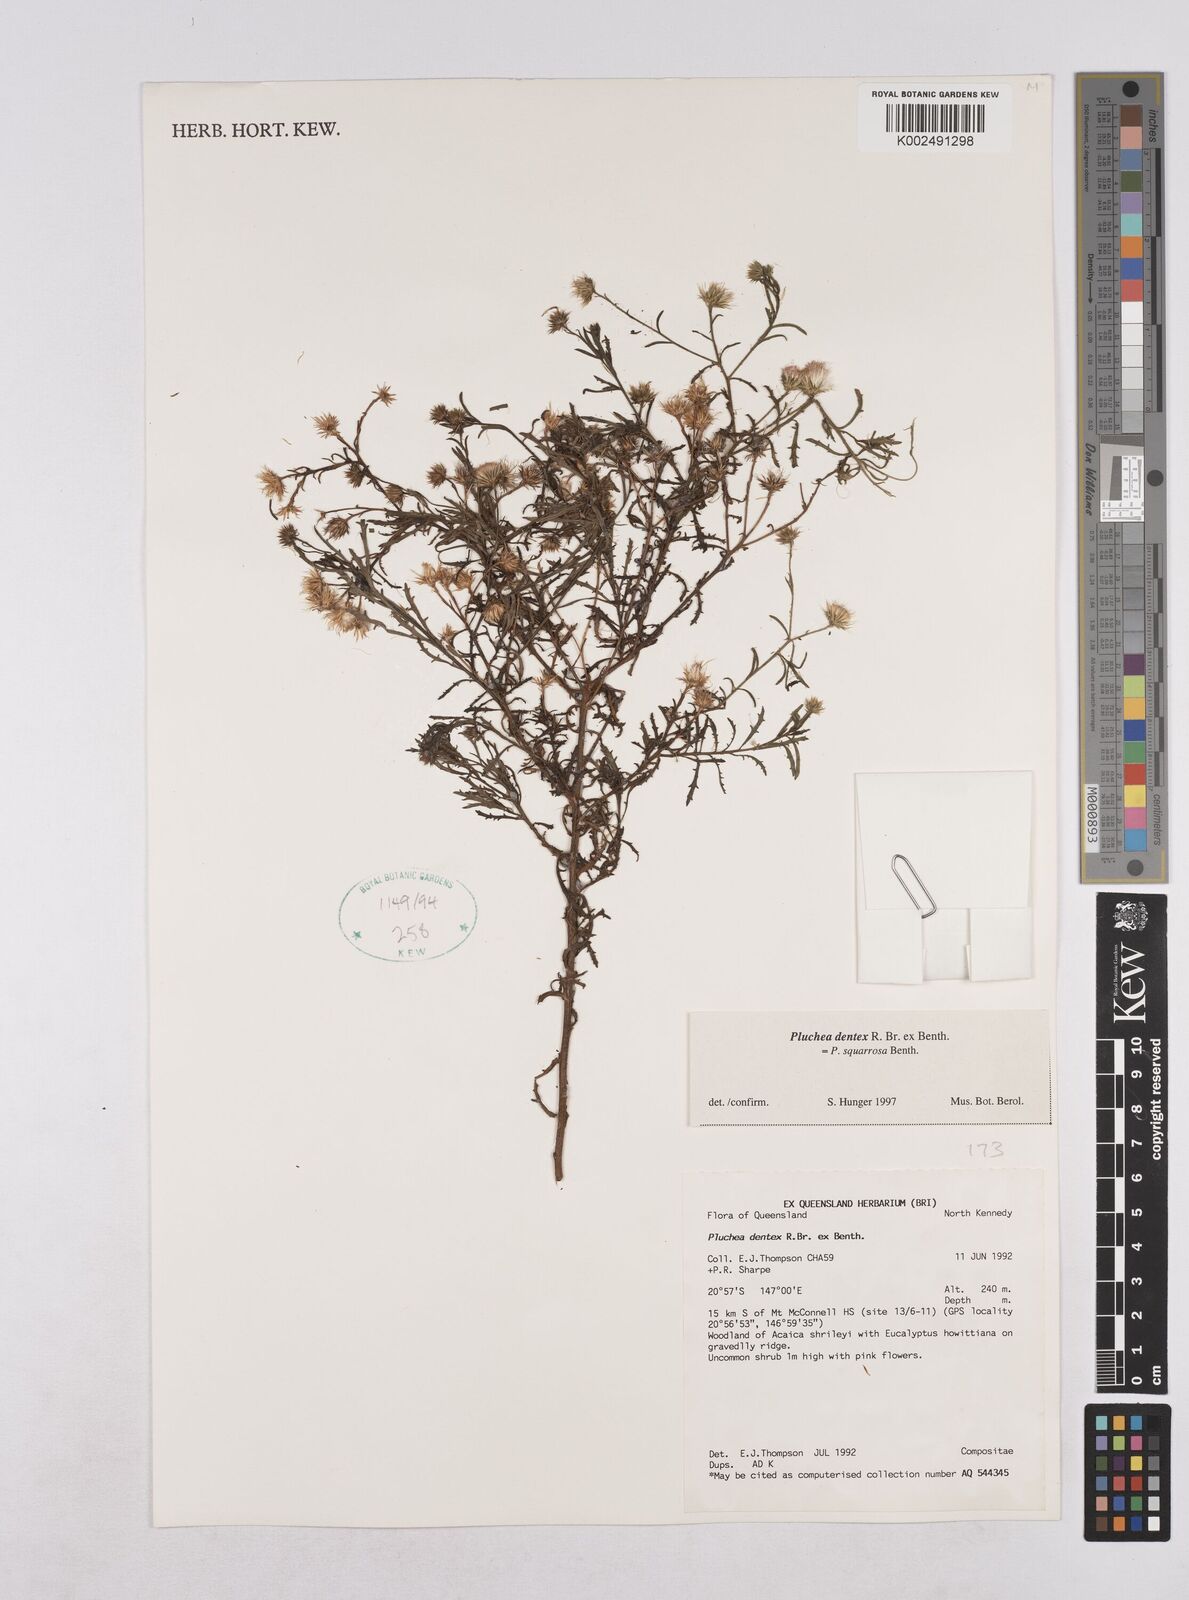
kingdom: Plantae
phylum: Tracheophyta
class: Magnoliopsida
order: Asterales
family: Asteraceae
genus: Pluchea
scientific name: Pluchea dentex
